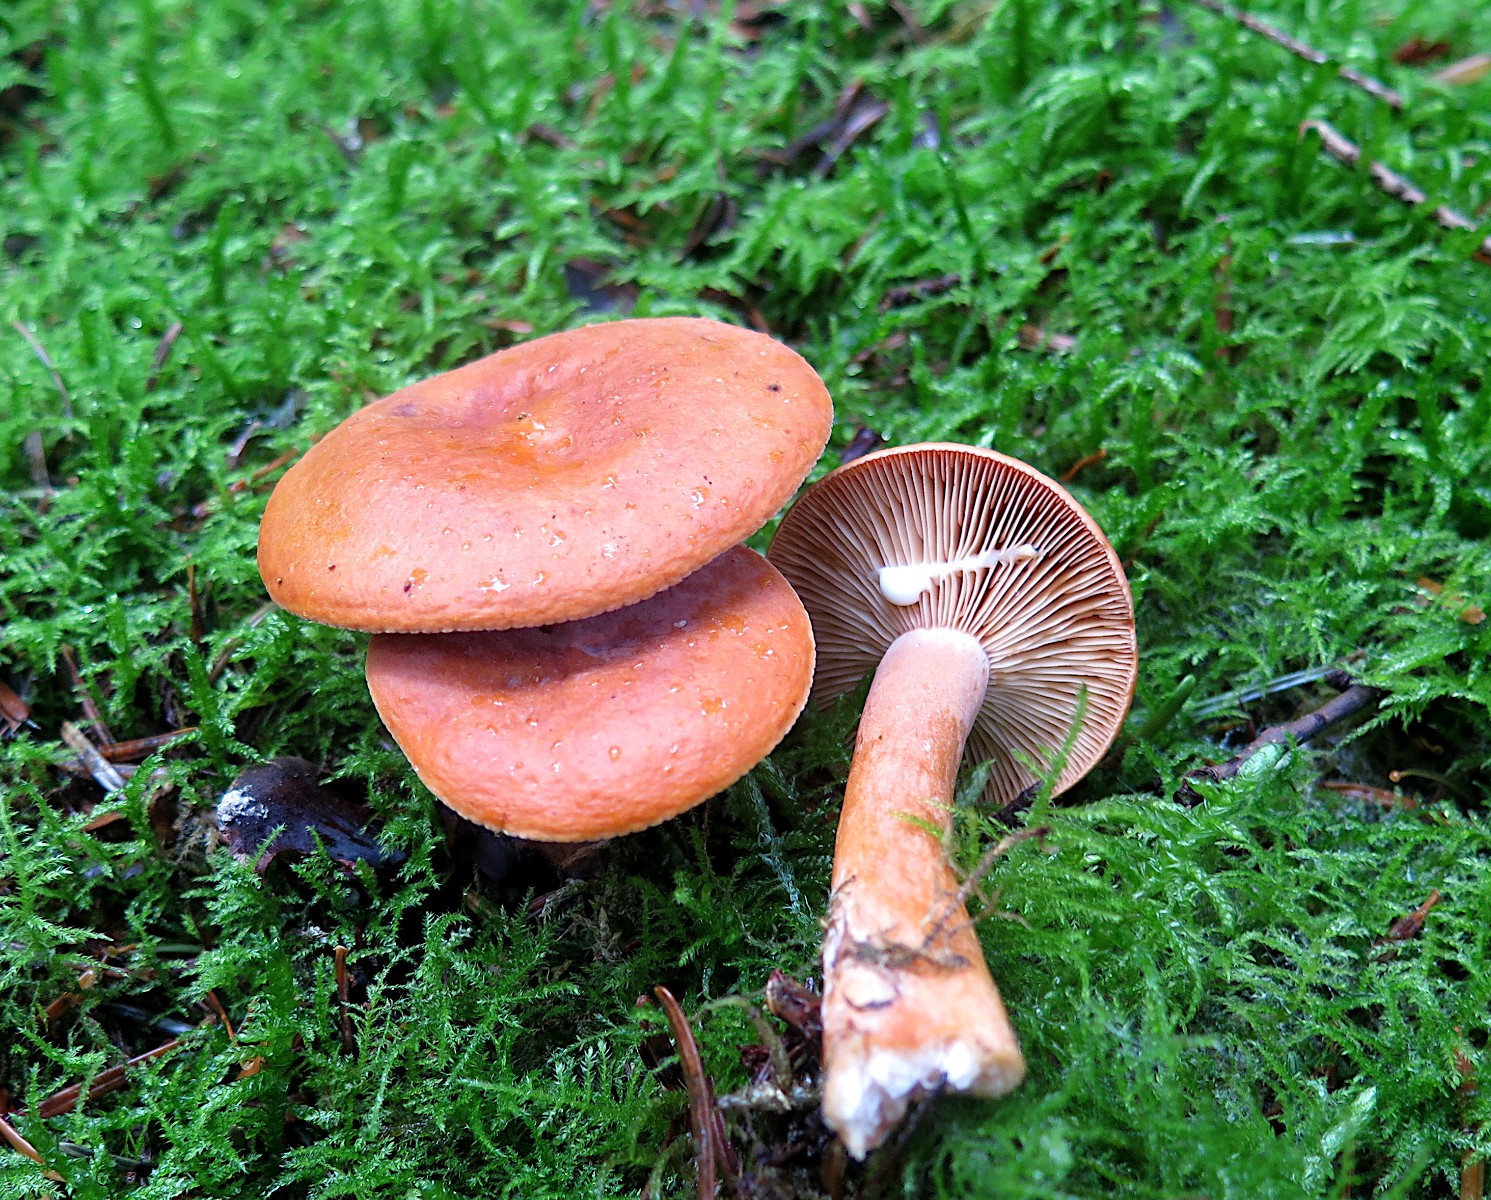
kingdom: Fungi
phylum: Basidiomycota
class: Agaricomycetes
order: Russulales
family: Russulaceae
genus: Lactarius
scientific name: Lactarius aurantiacus
